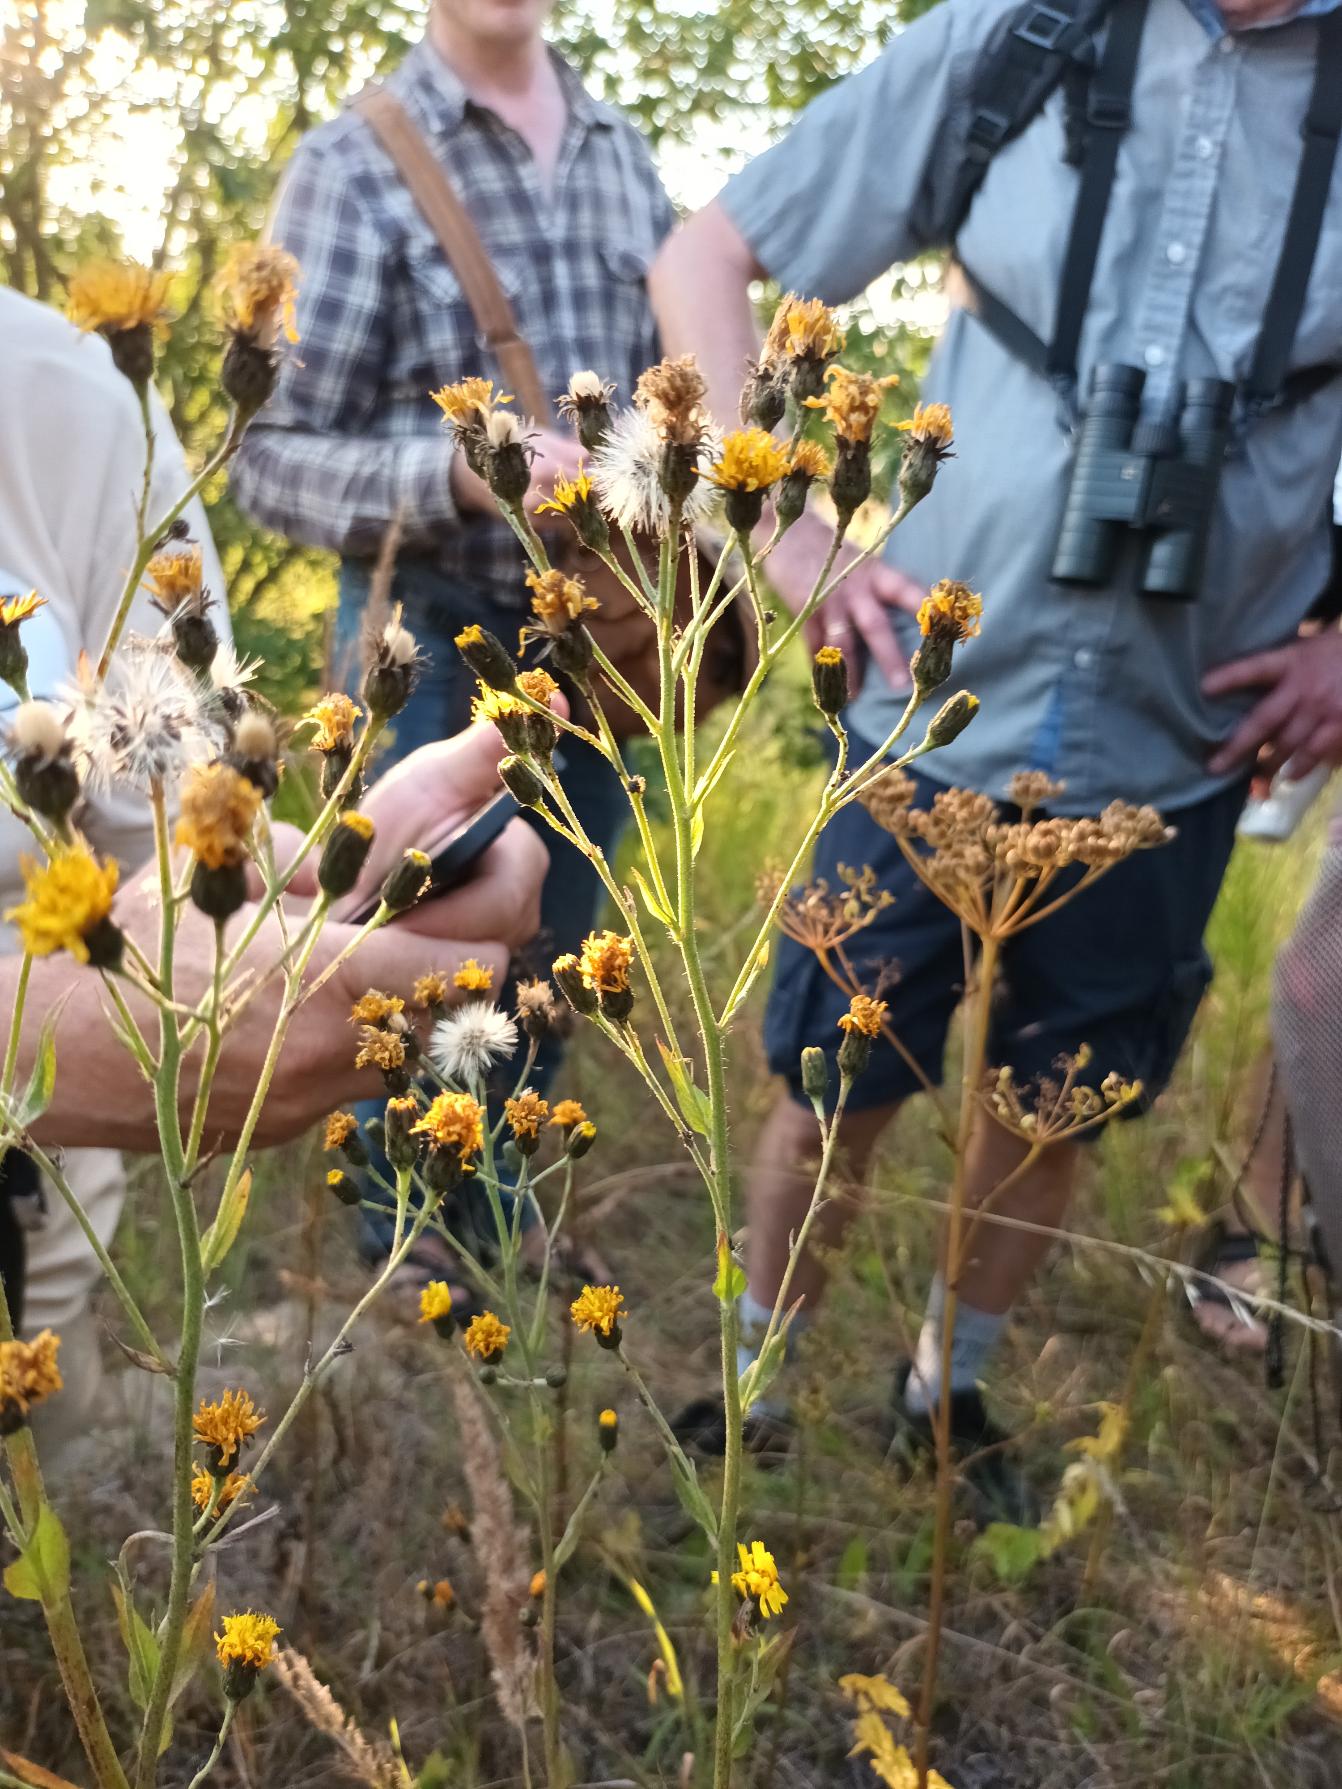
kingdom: Plantae
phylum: Tracheophyta
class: Magnoliopsida
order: Asterales
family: Asteraceae
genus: Hieracium
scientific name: Hieracium sabaudum
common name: Bredbladet høgeurt
